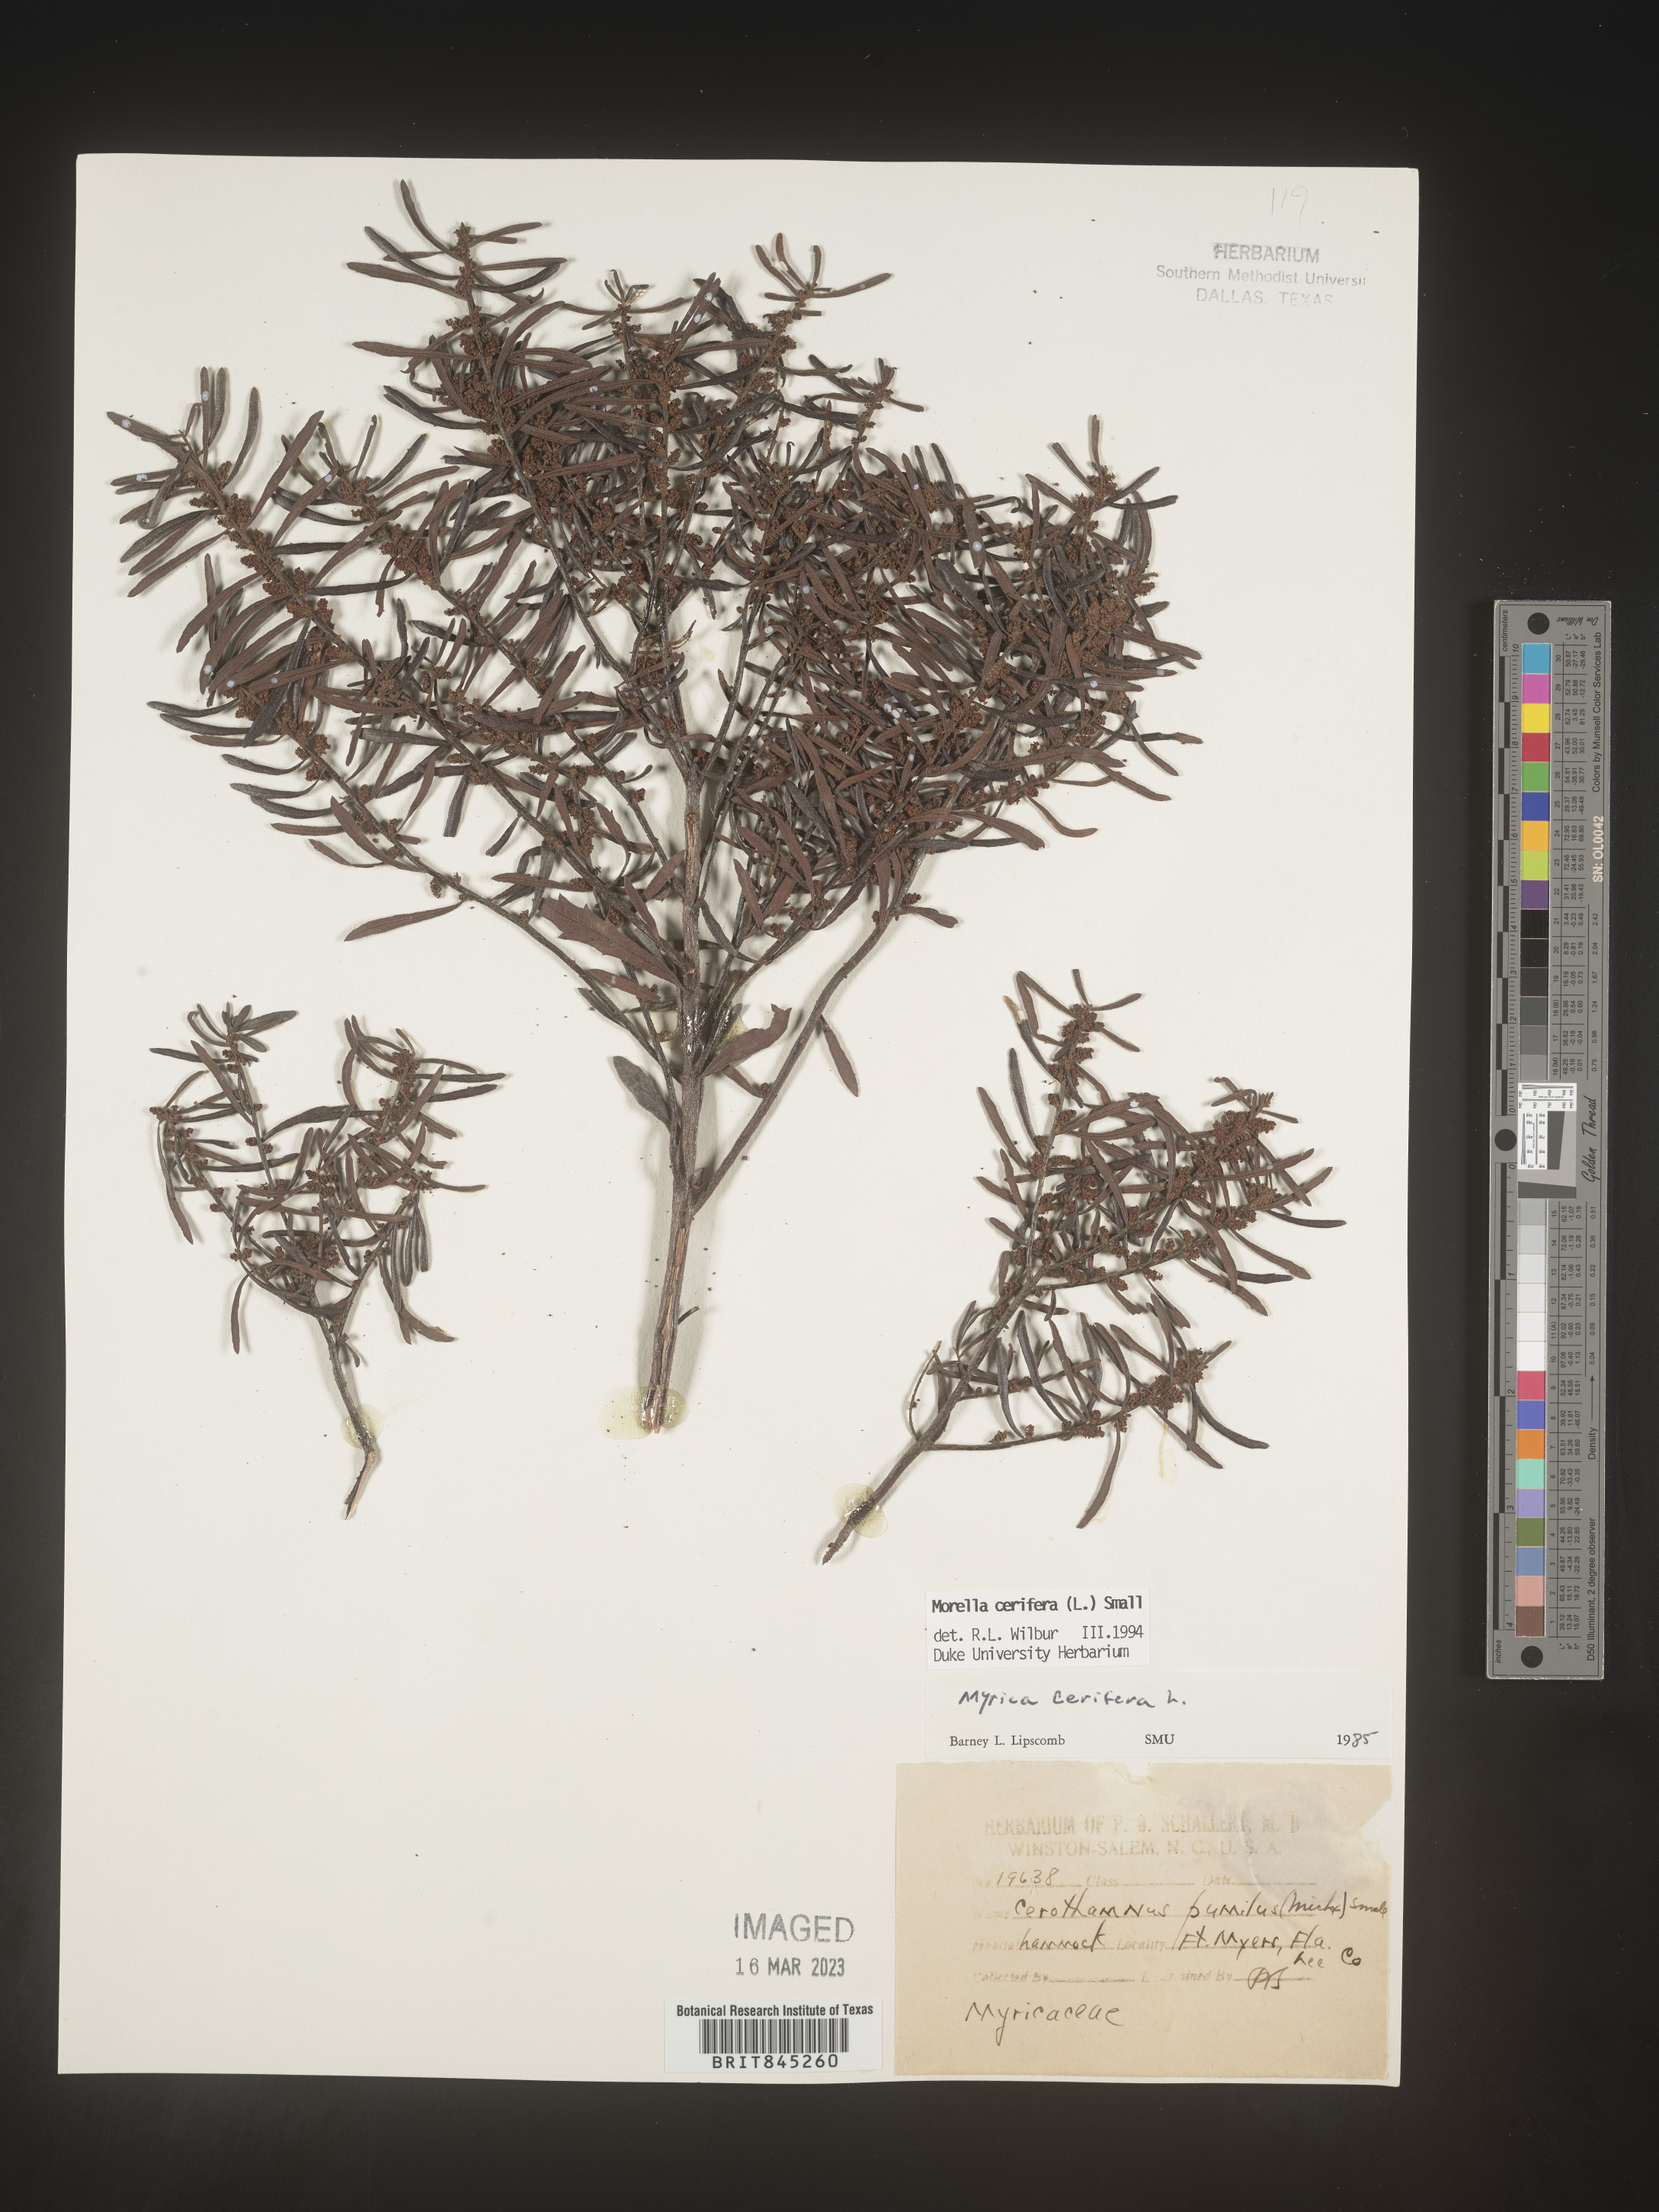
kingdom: Plantae
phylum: Tracheophyta
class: Magnoliopsida
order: Fagales
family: Myricaceae
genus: Morella
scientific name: Morella cerifera
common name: Wax myrtle
